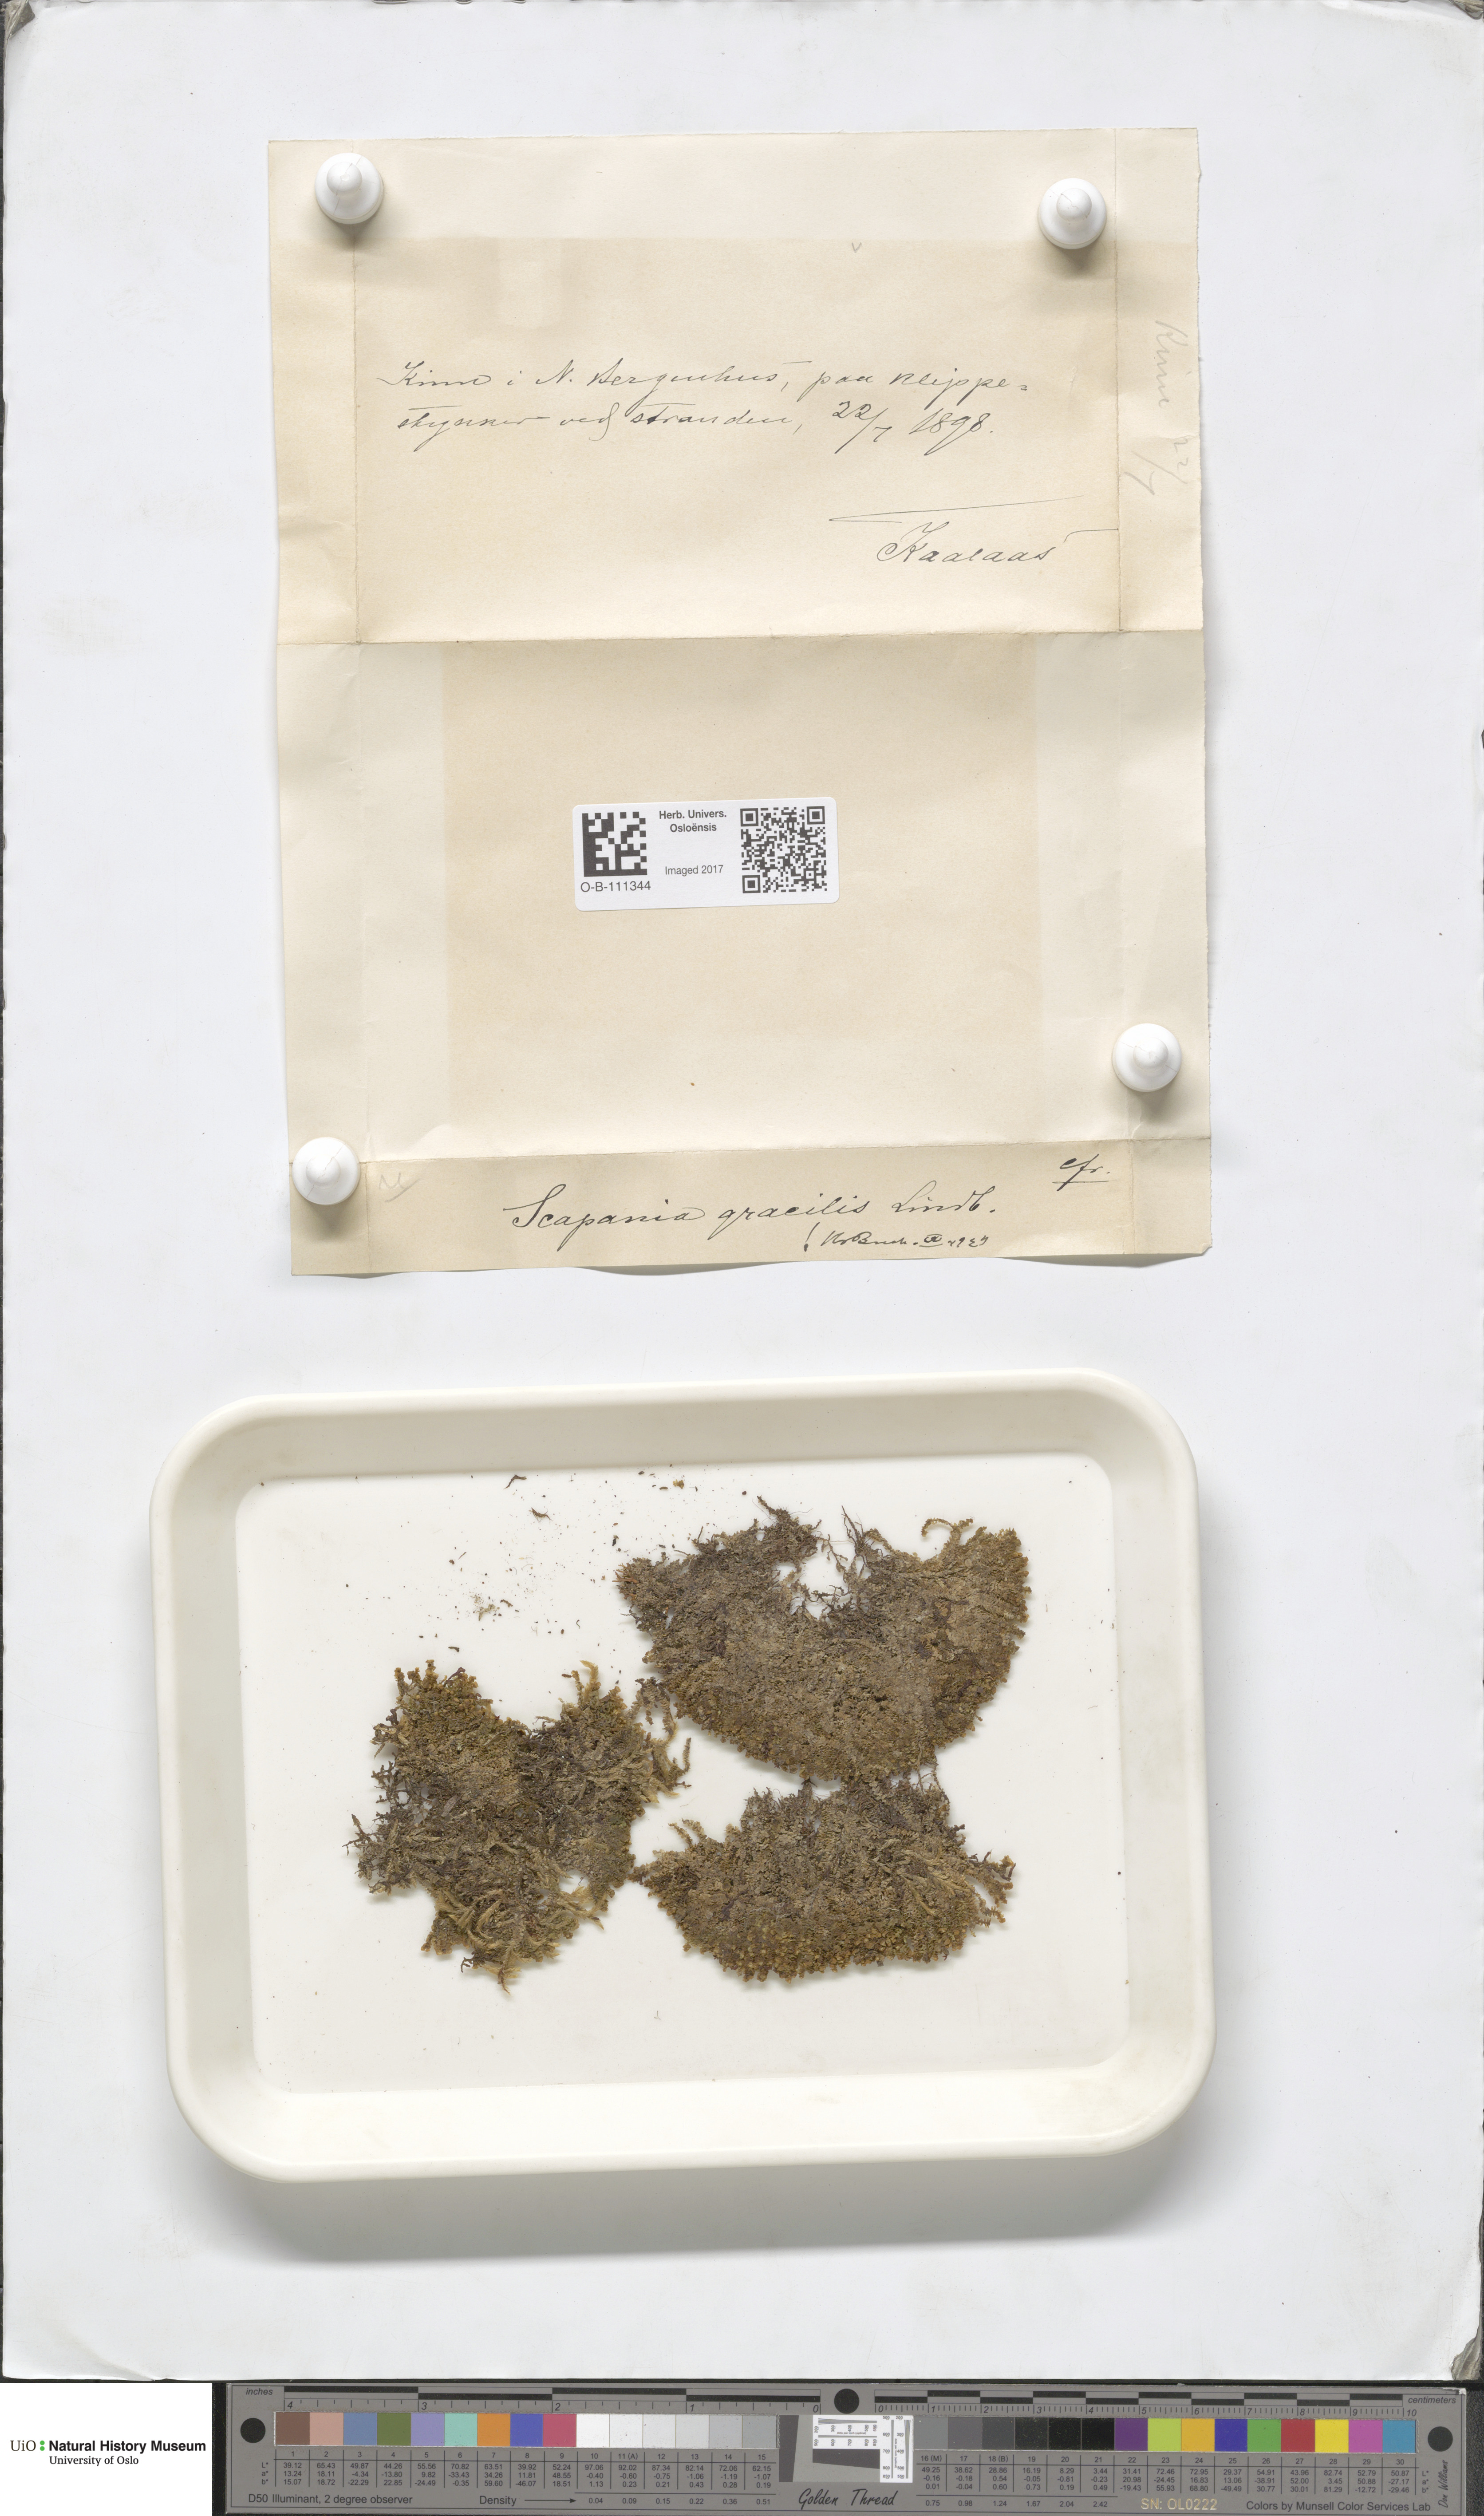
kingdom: Plantae
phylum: Marchantiophyta
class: Jungermanniopsida
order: Jungermanniales
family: Scapaniaceae
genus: Scapania
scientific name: Scapania gracilis
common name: Western earwort
